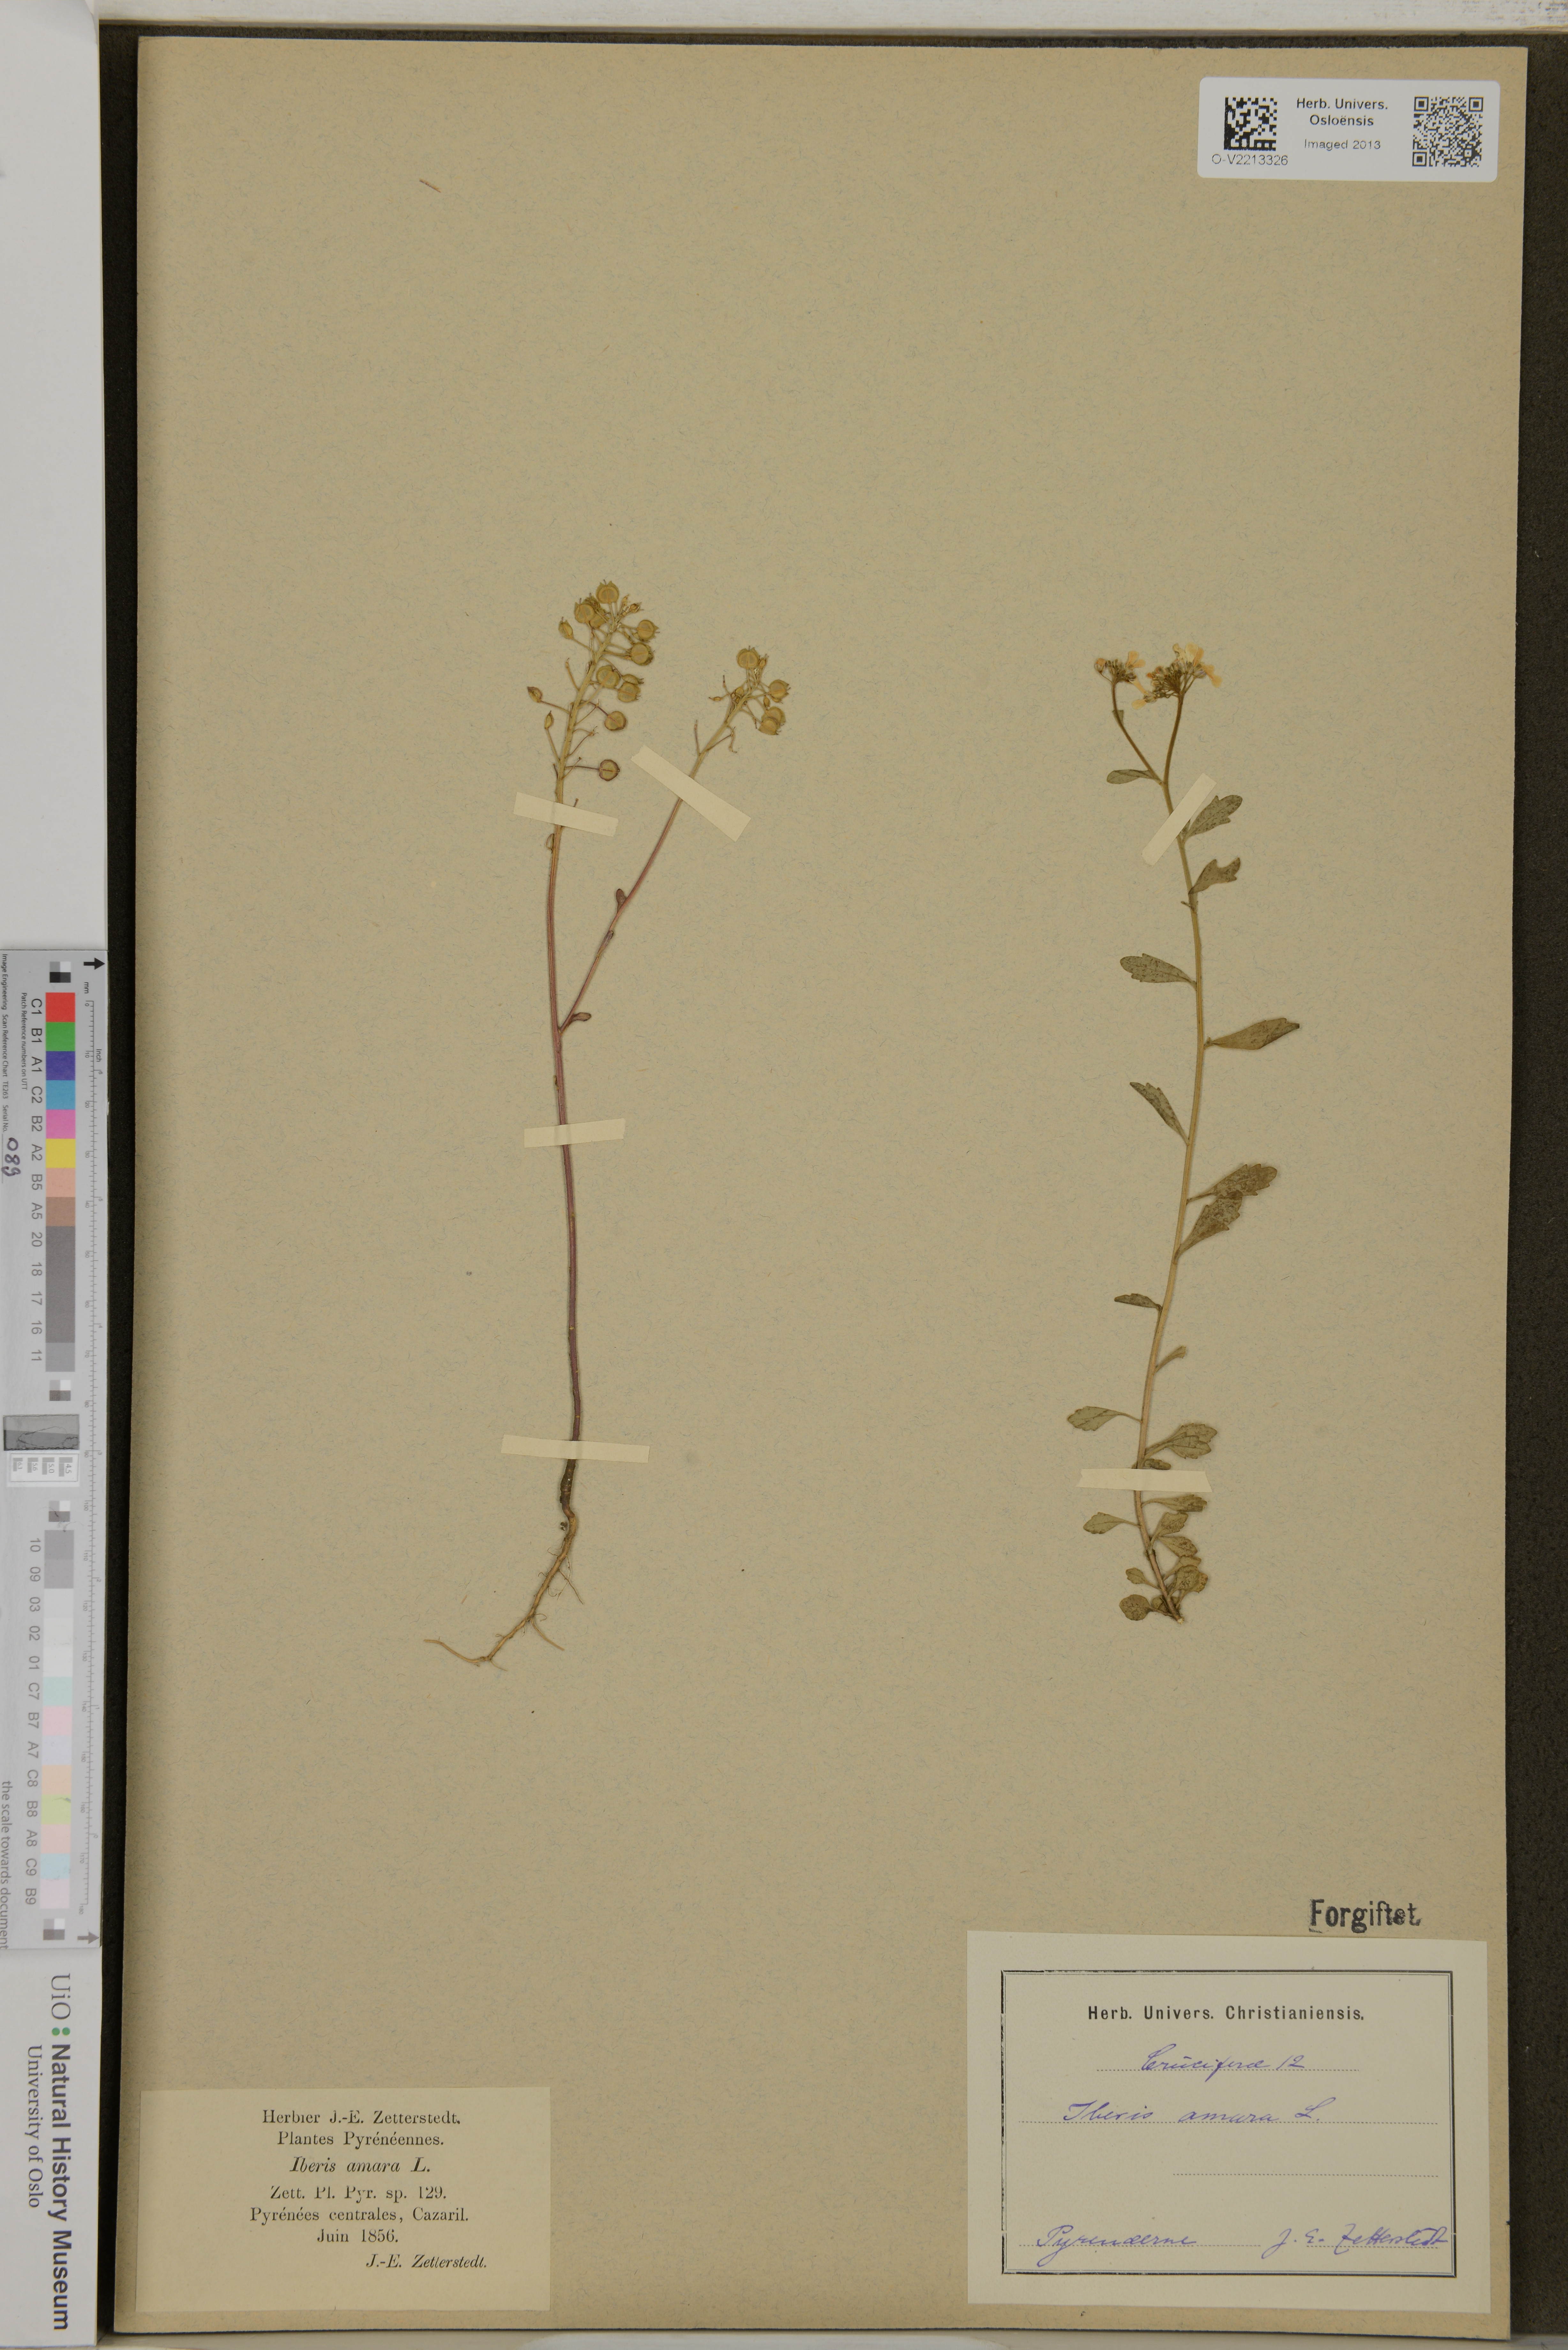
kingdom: Plantae
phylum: Tracheophyta
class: Magnoliopsida
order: Brassicales
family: Brassicaceae
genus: Iberis
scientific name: Iberis amara
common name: Annual candytuft
